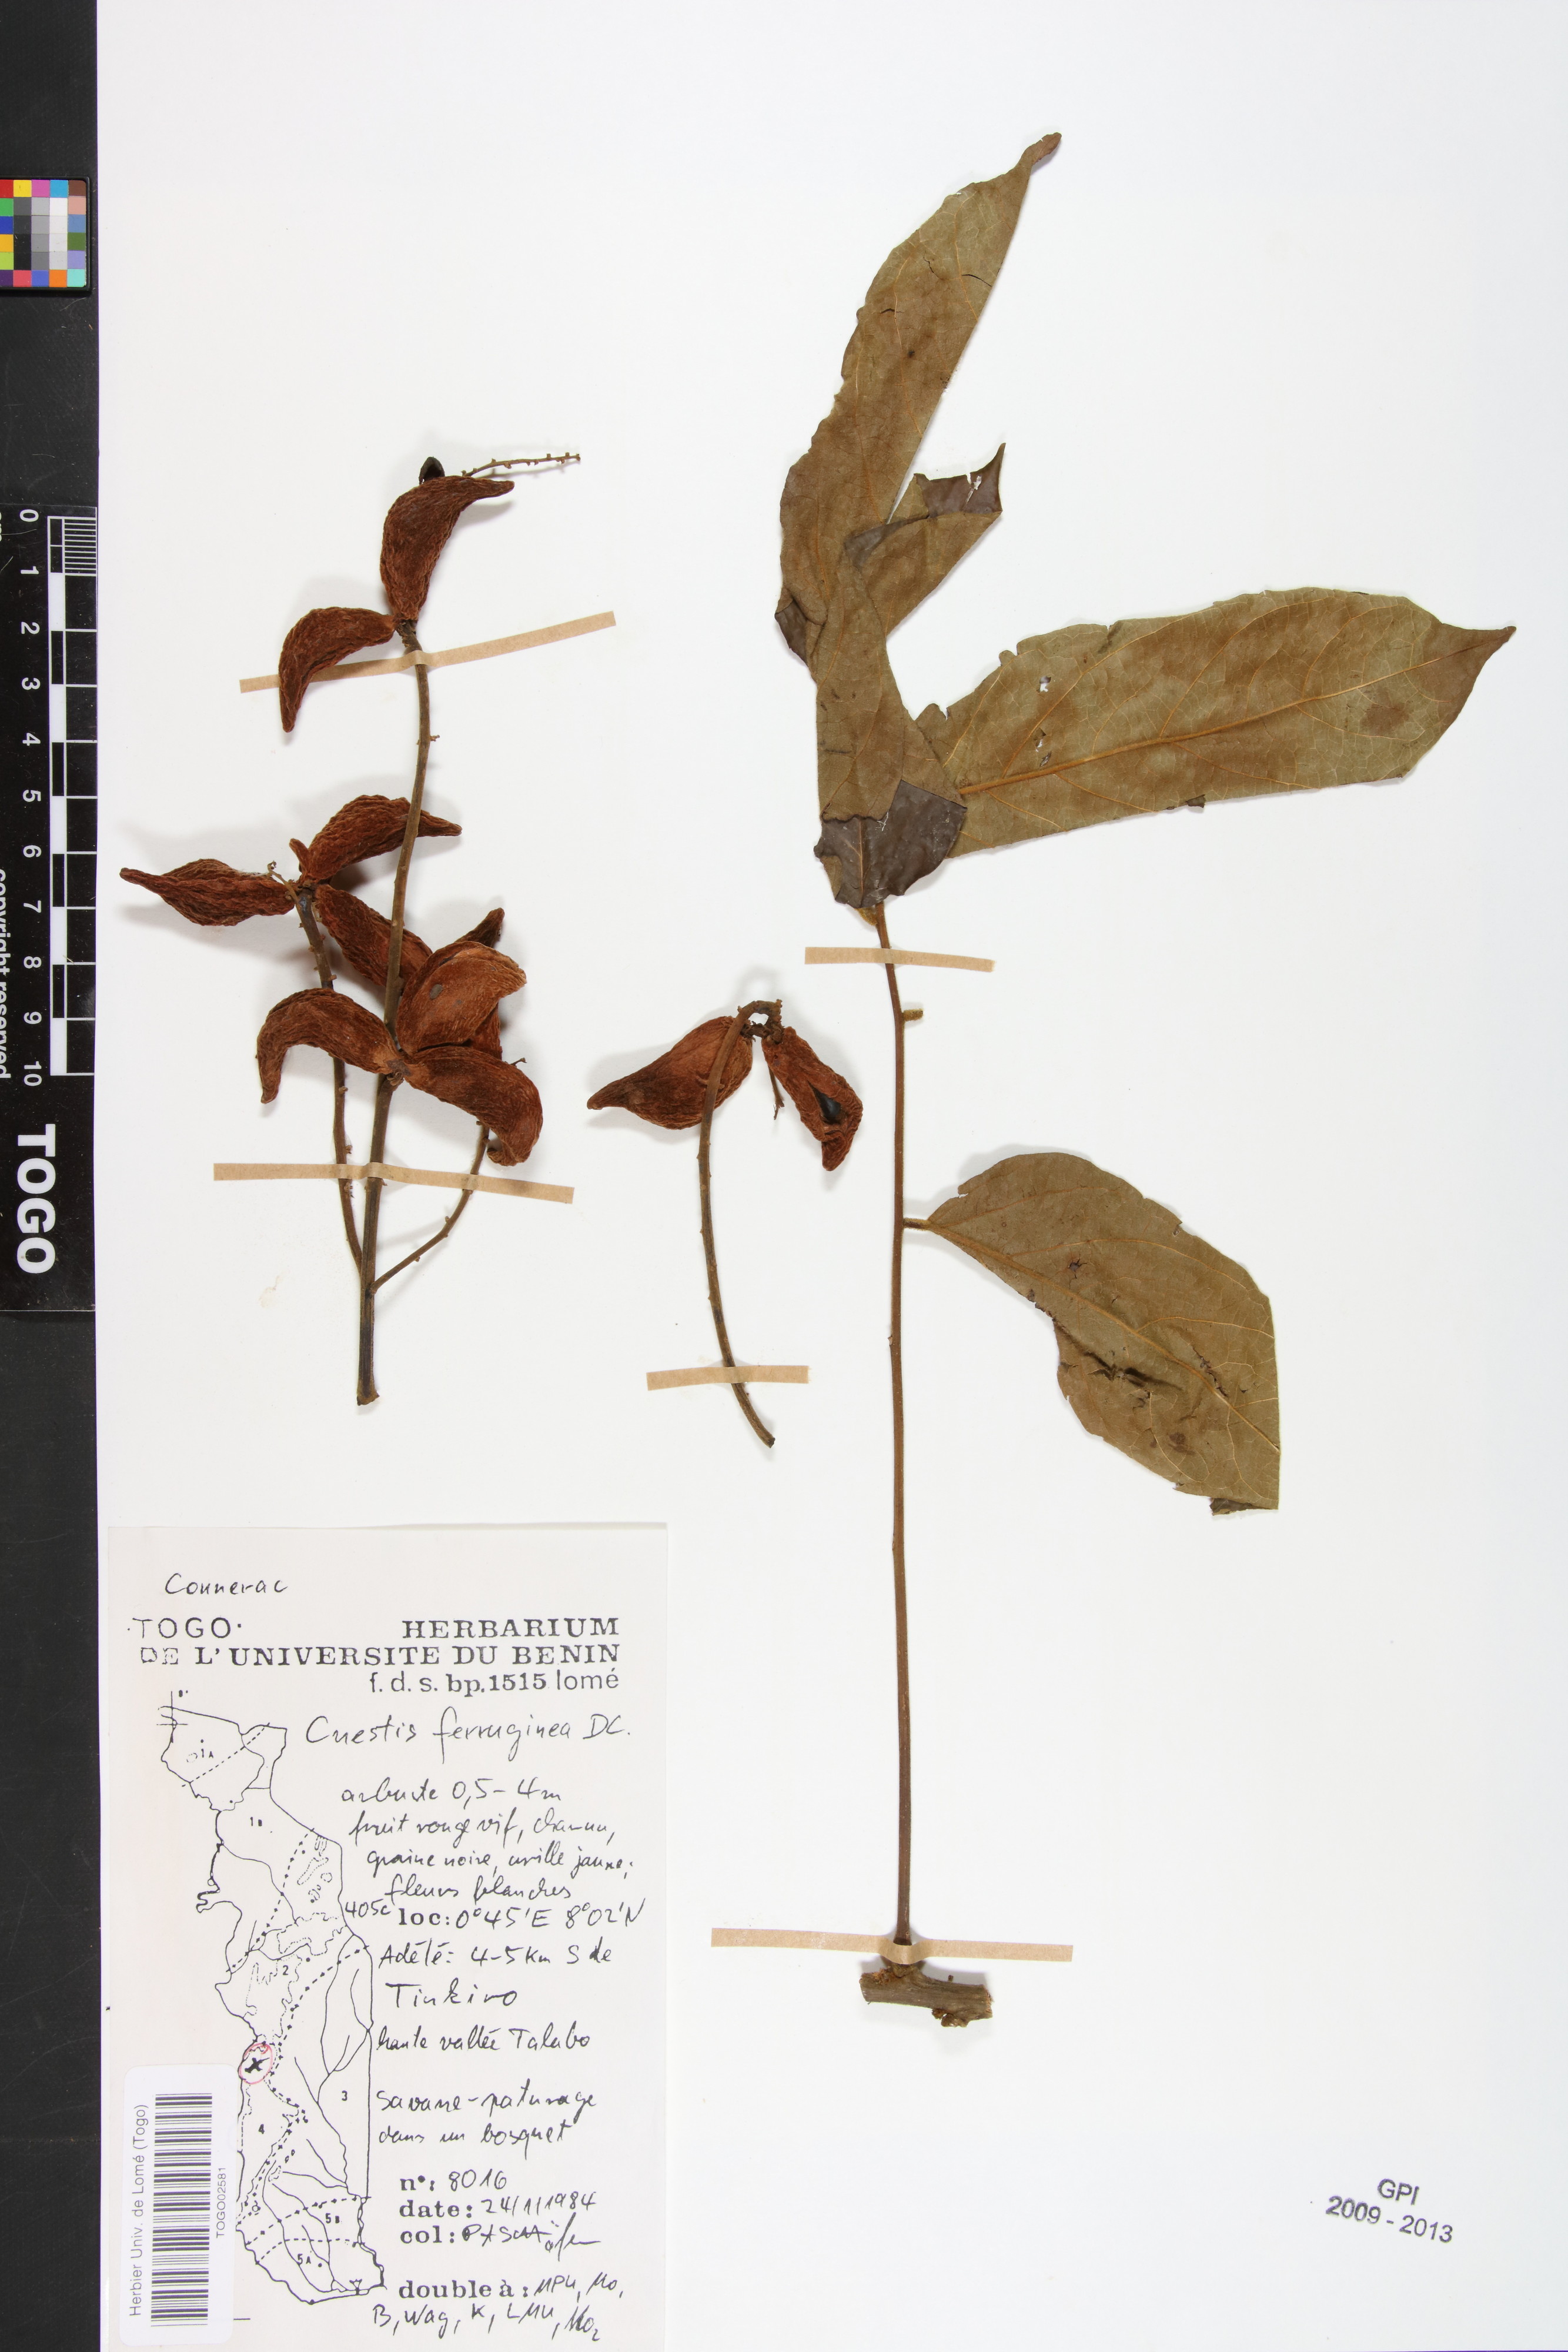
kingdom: Plantae
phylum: Tracheophyta
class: Magnoliopsida
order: Oxalidales
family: Connaraceae
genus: Cnestis
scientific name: Cnestis ferruginea
